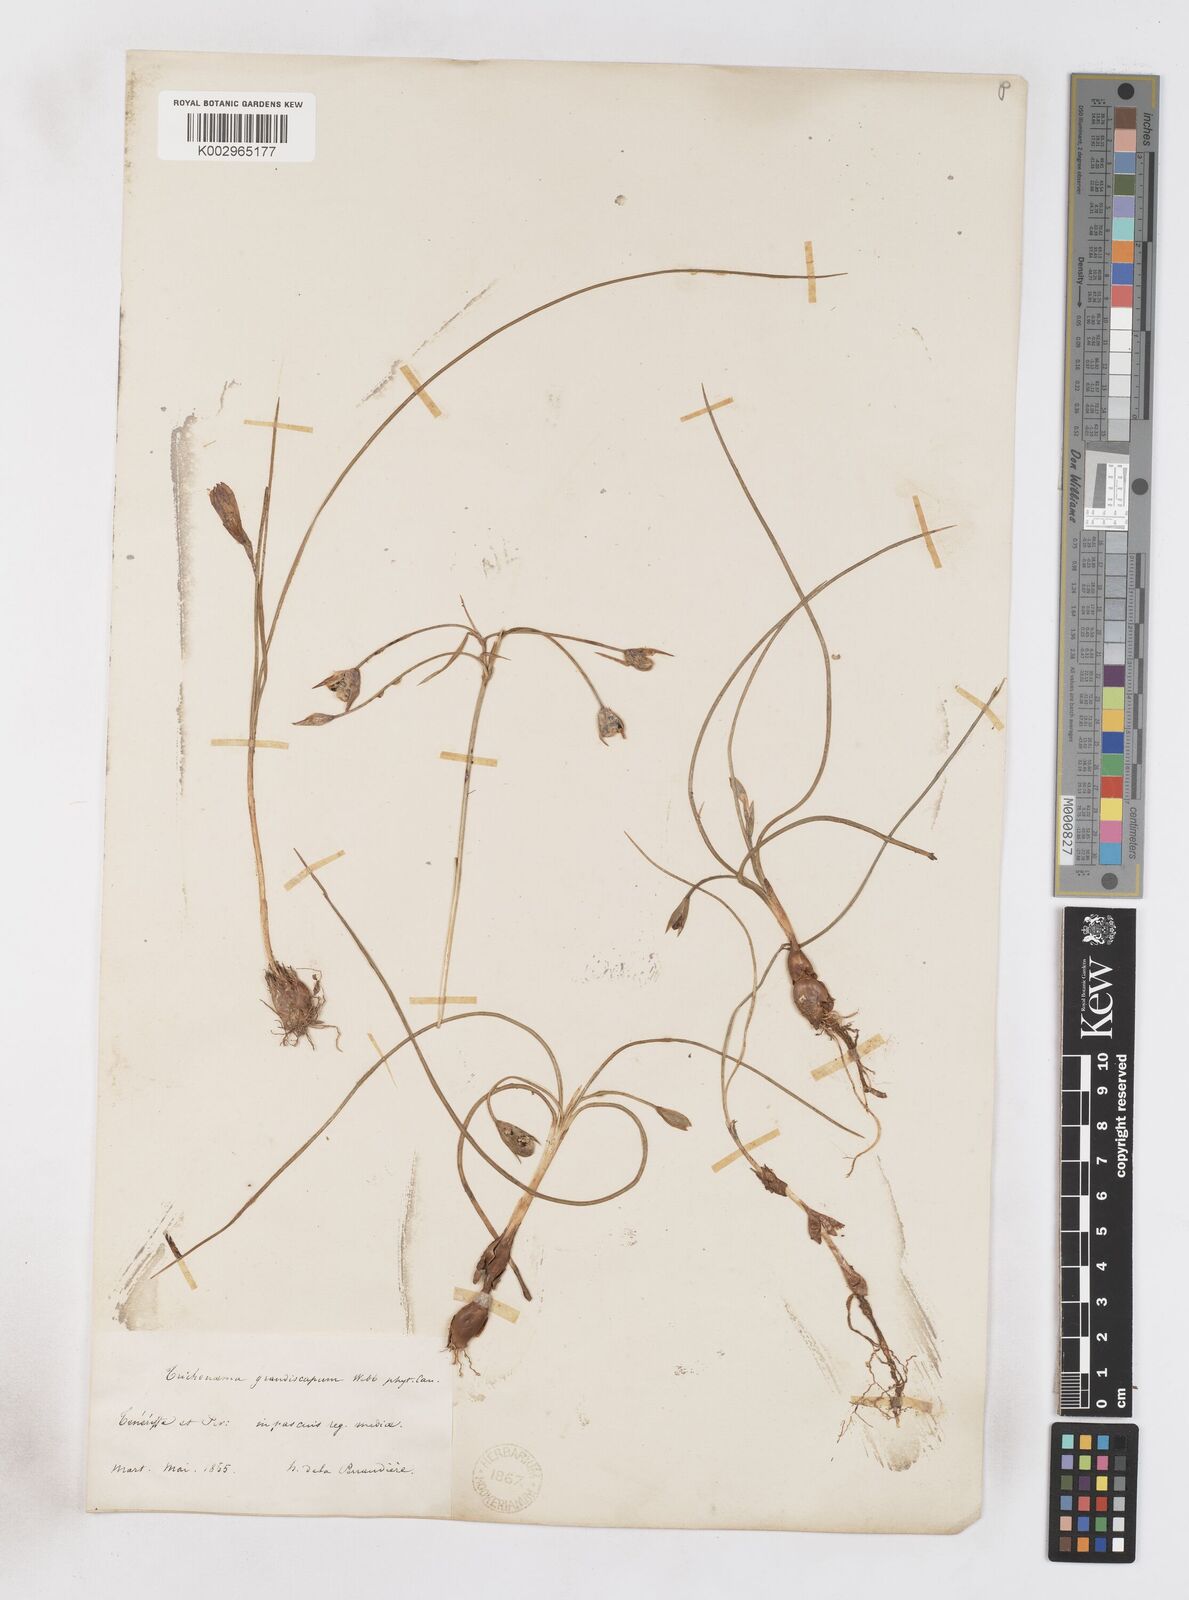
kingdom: Plantae
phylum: Tracheophyta
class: Liliopsida
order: Asparagales
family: Iridaceae
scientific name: Iridaceae
